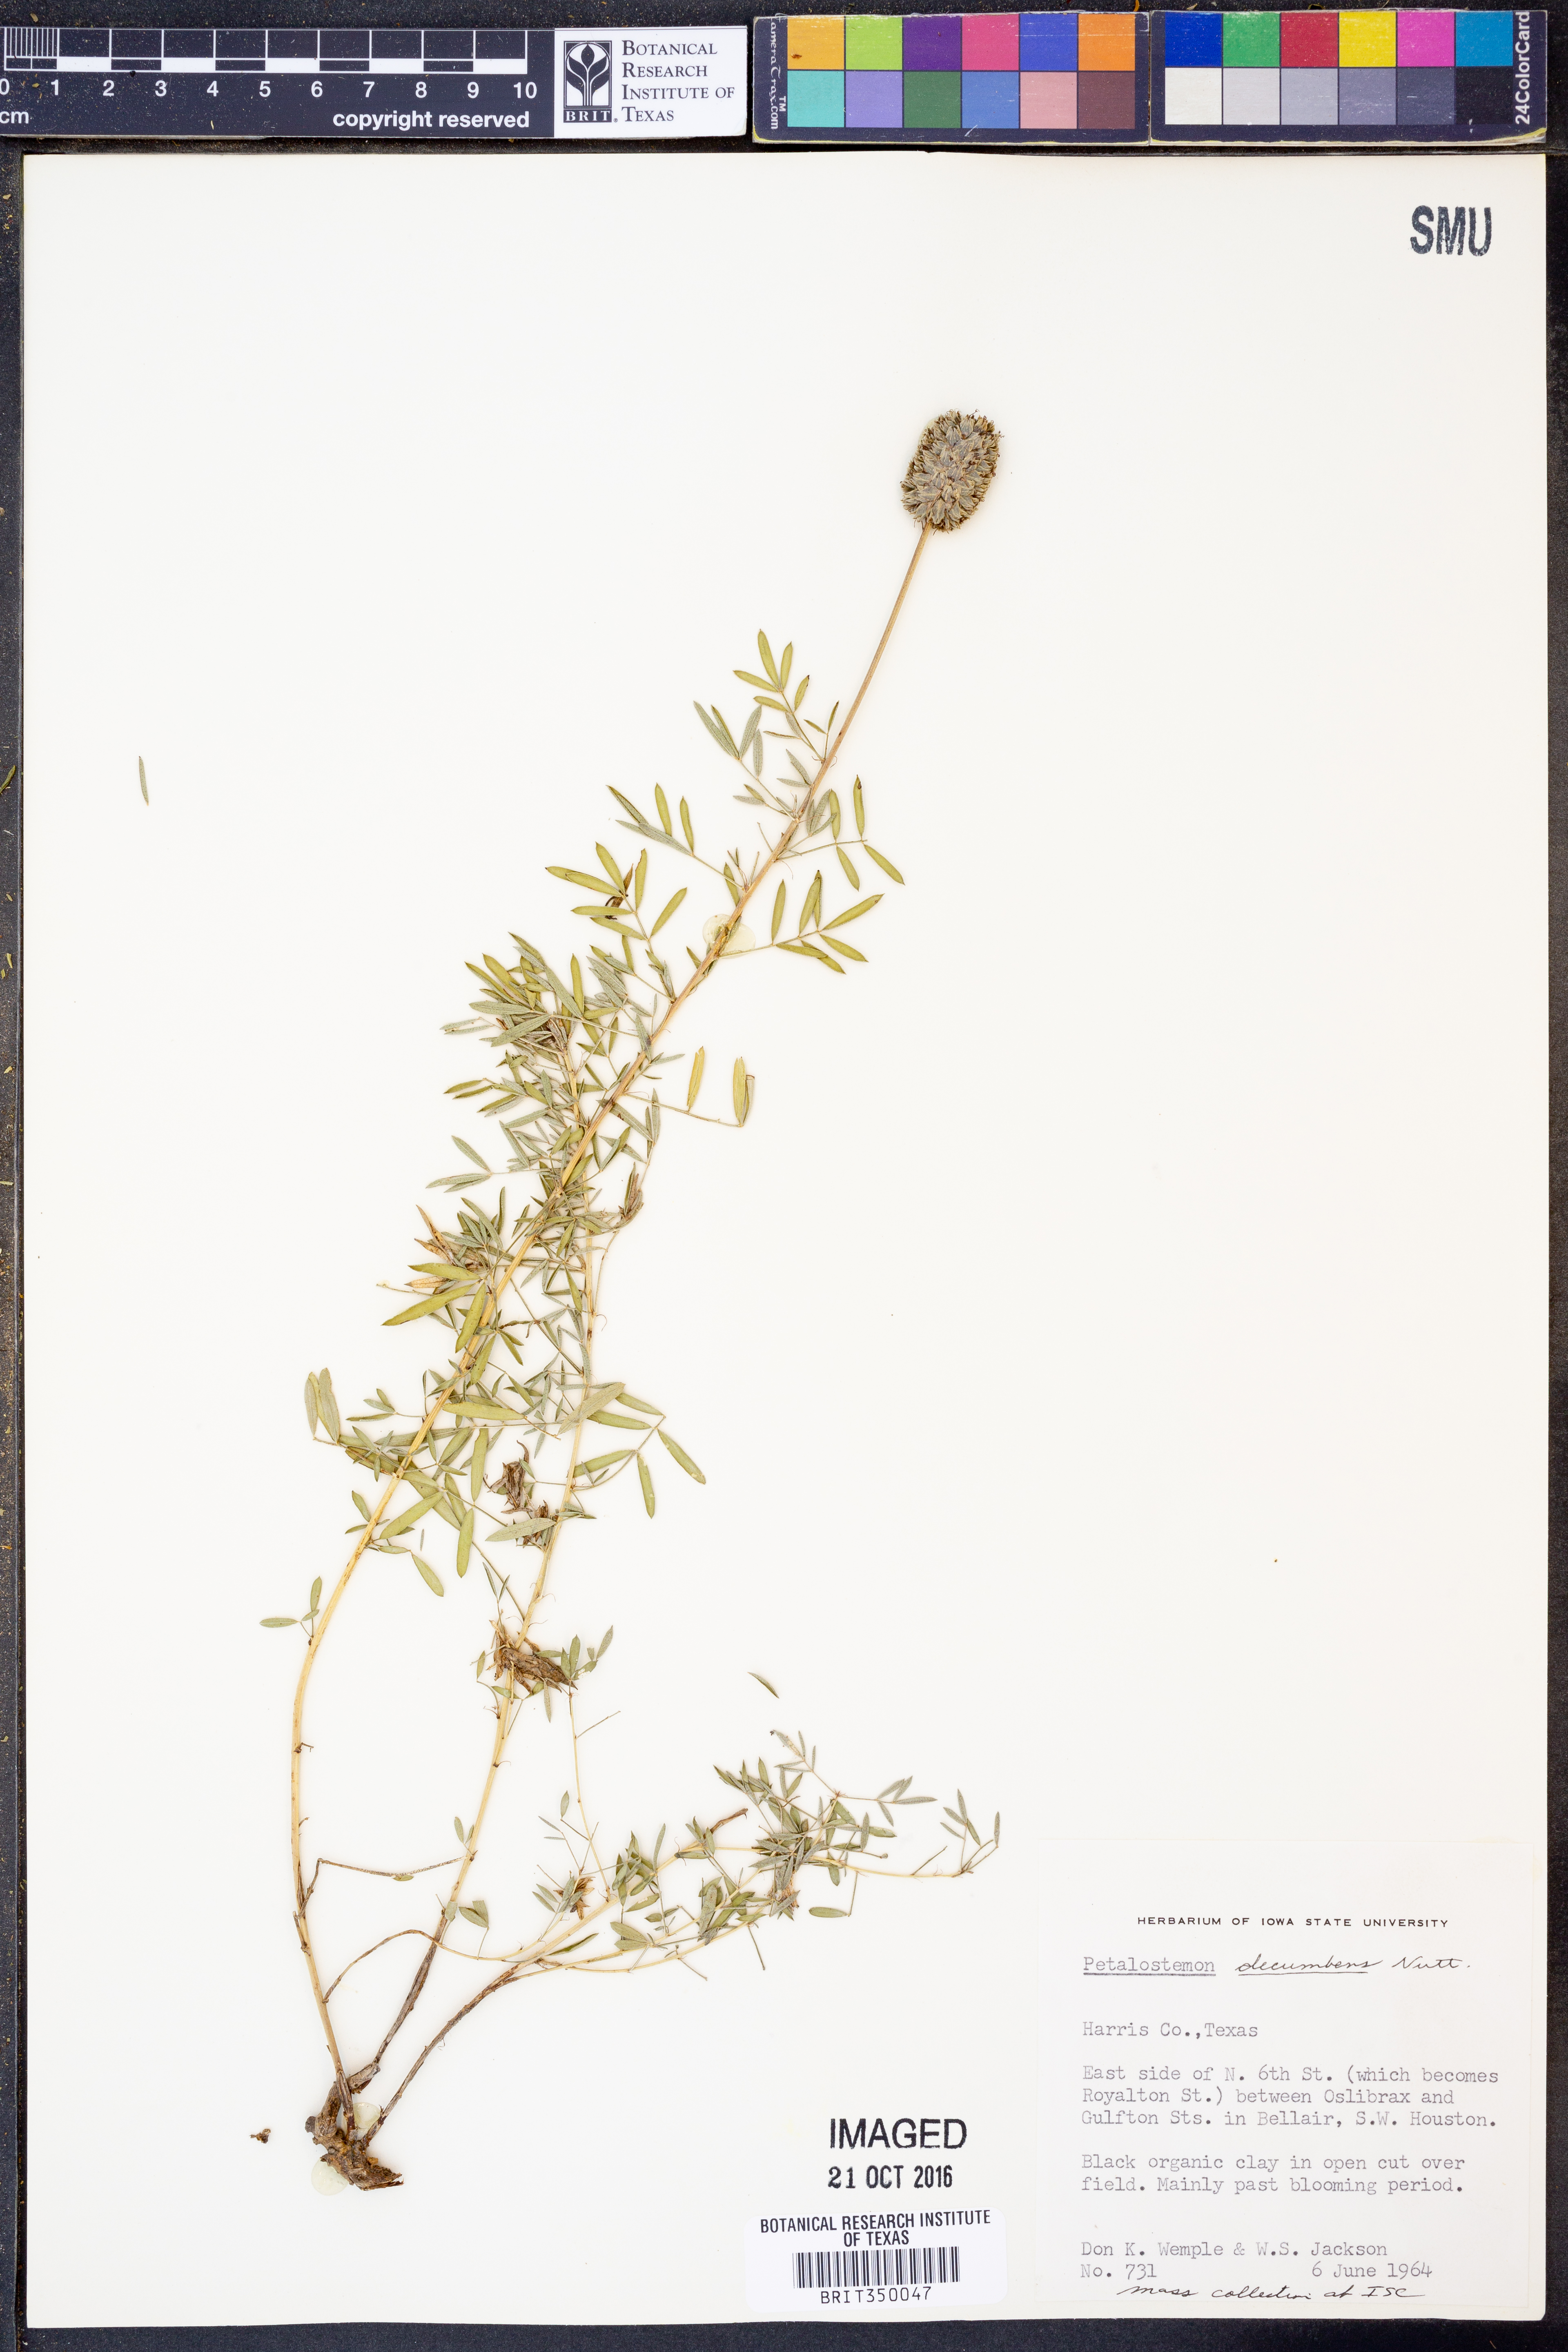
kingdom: Plantae
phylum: Tracheophyta
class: Magnoliopsida
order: Fabales
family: Fabaceae
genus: Dalea
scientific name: Dalea compacta
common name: Compact prairie-clover
